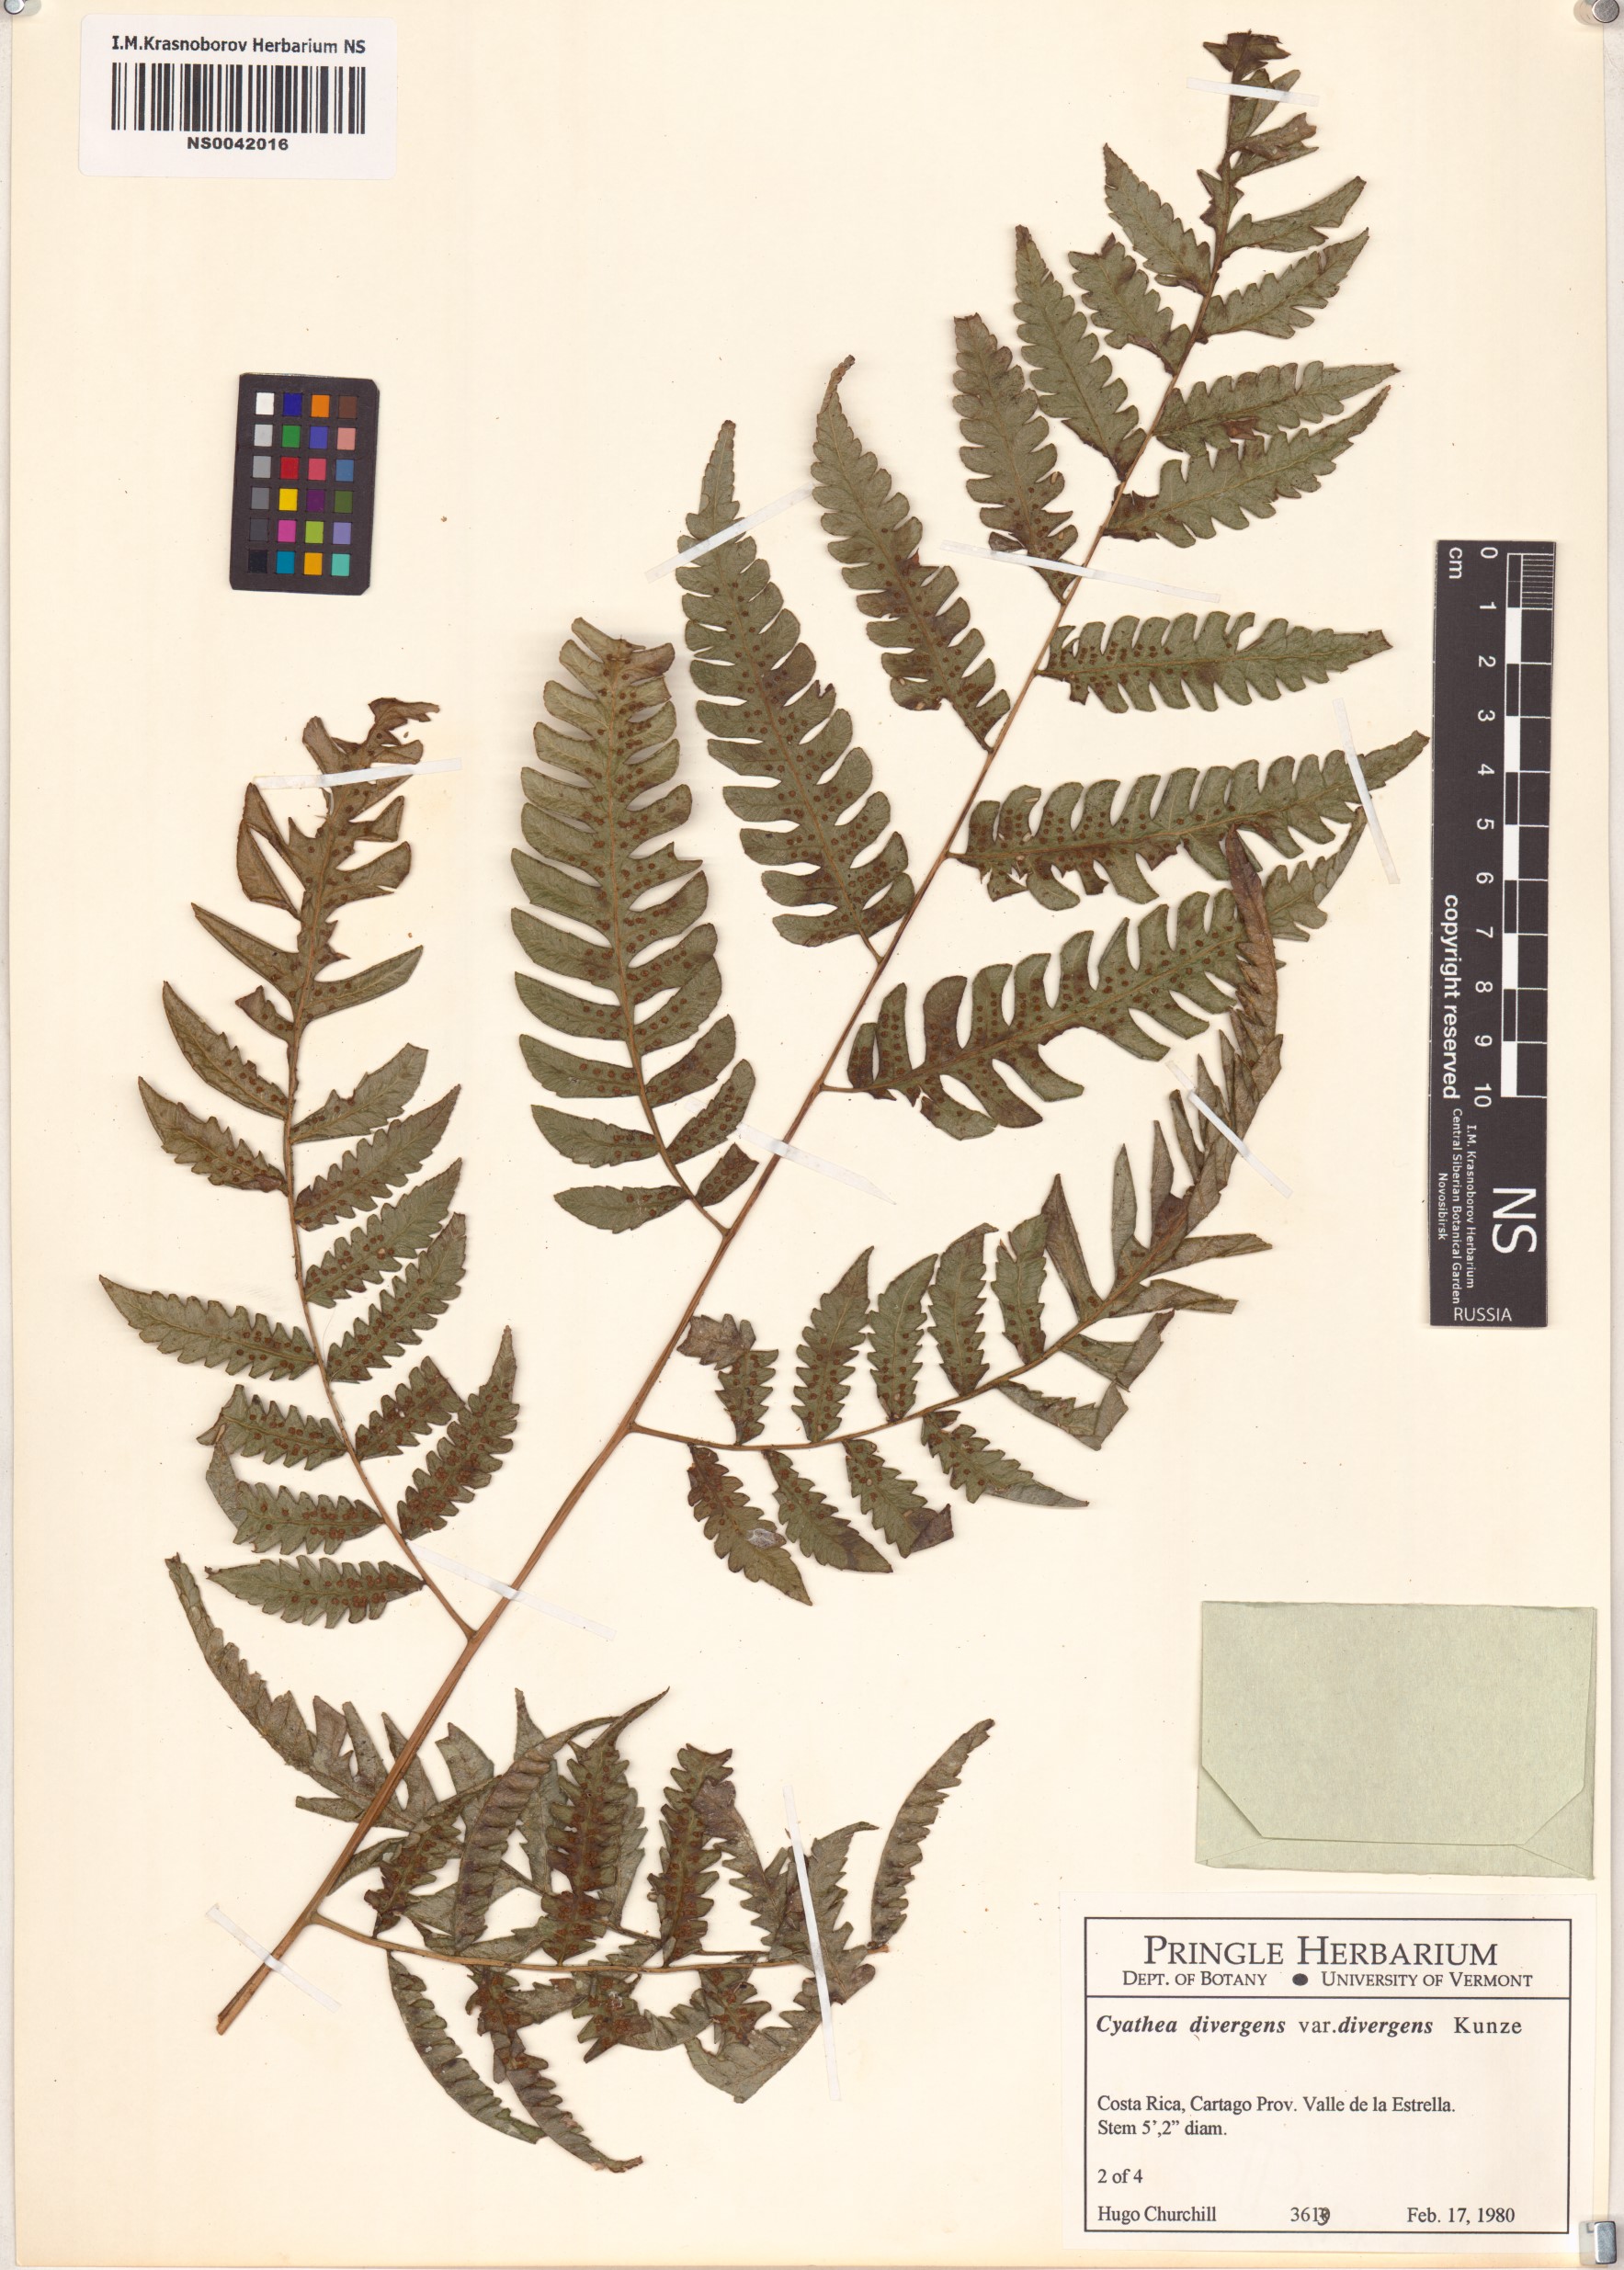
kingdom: Plantae
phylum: Tracheophyta
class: Polypodiopsida
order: Cyatheales
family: Cyatheaceae
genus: Cyathea
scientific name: Cyathea divergens
